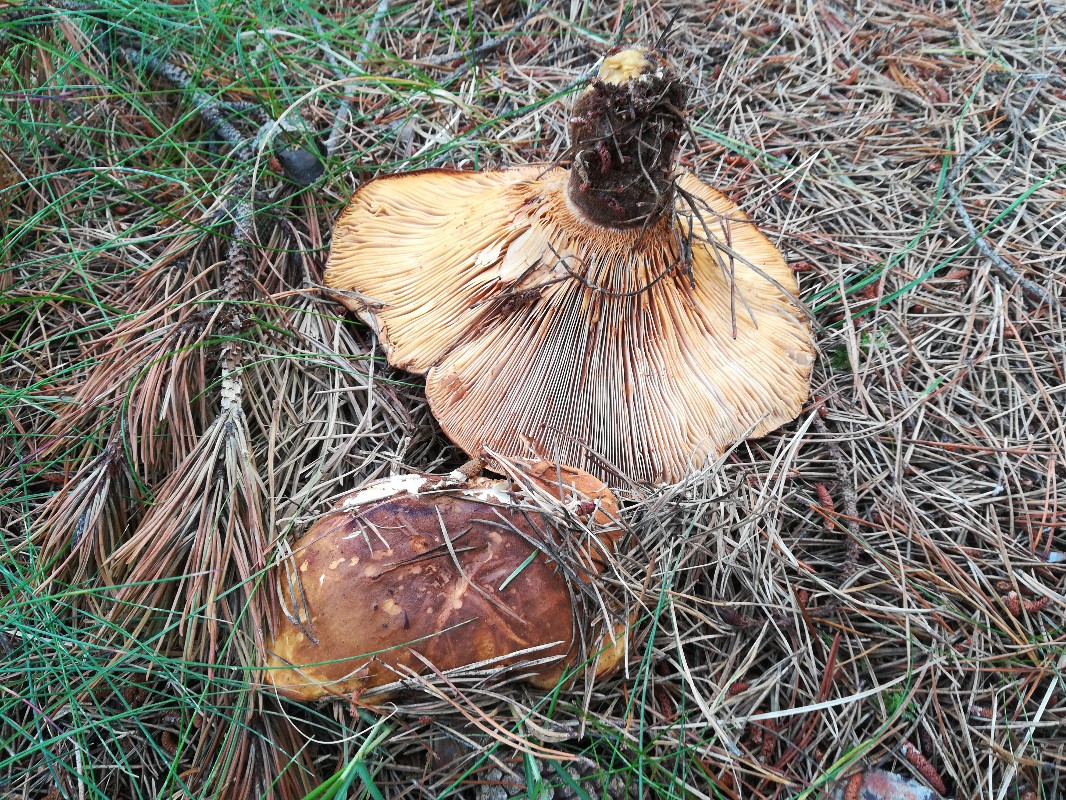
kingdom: Fungi
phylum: Basidiomycota
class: Agaricomycetes
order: Boletales
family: Tapinellaceae
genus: Tapinella
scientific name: Tapinella atrotomentosa
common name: sortfiltet viftesvamp
